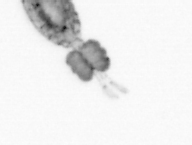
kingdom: Animalia
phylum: Arthropoda
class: Copepoda
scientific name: Copepoda
